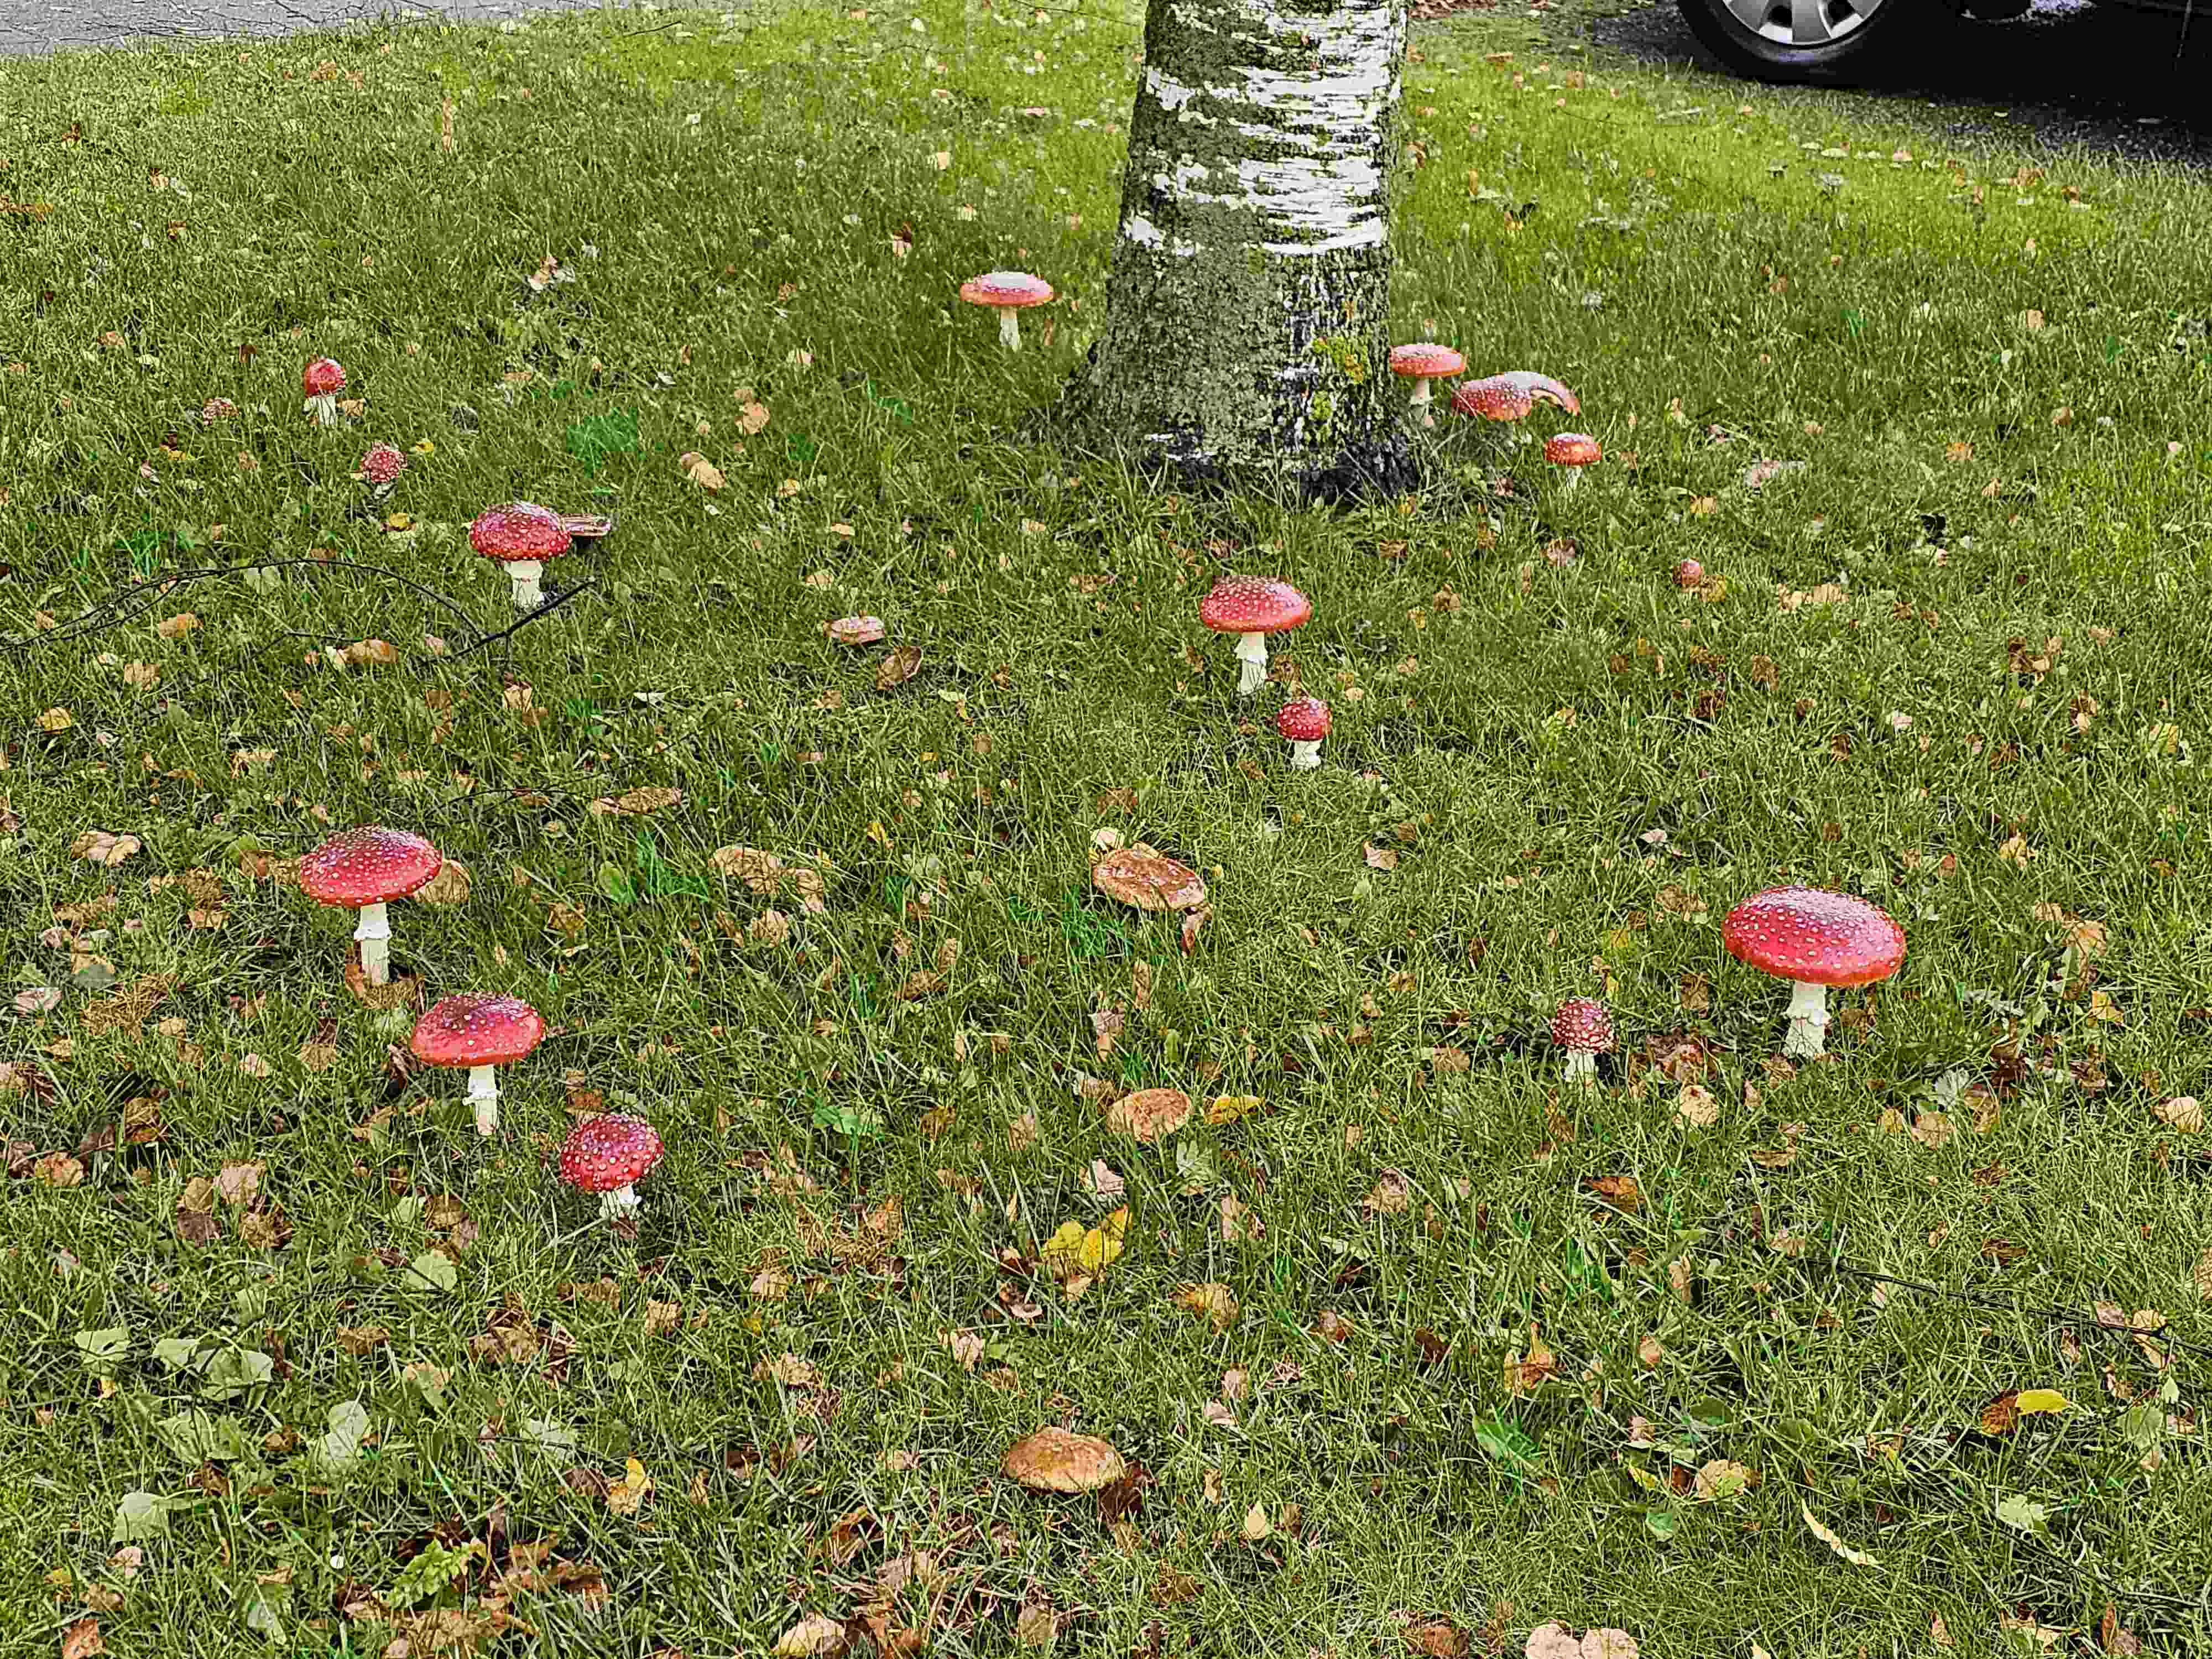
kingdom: Fungi
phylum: Basidiomycota
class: Agaricomycetes
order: Agaricales
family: Amanitaceae
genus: Amanita
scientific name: Amanita muscaria
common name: rød fluesvamp
